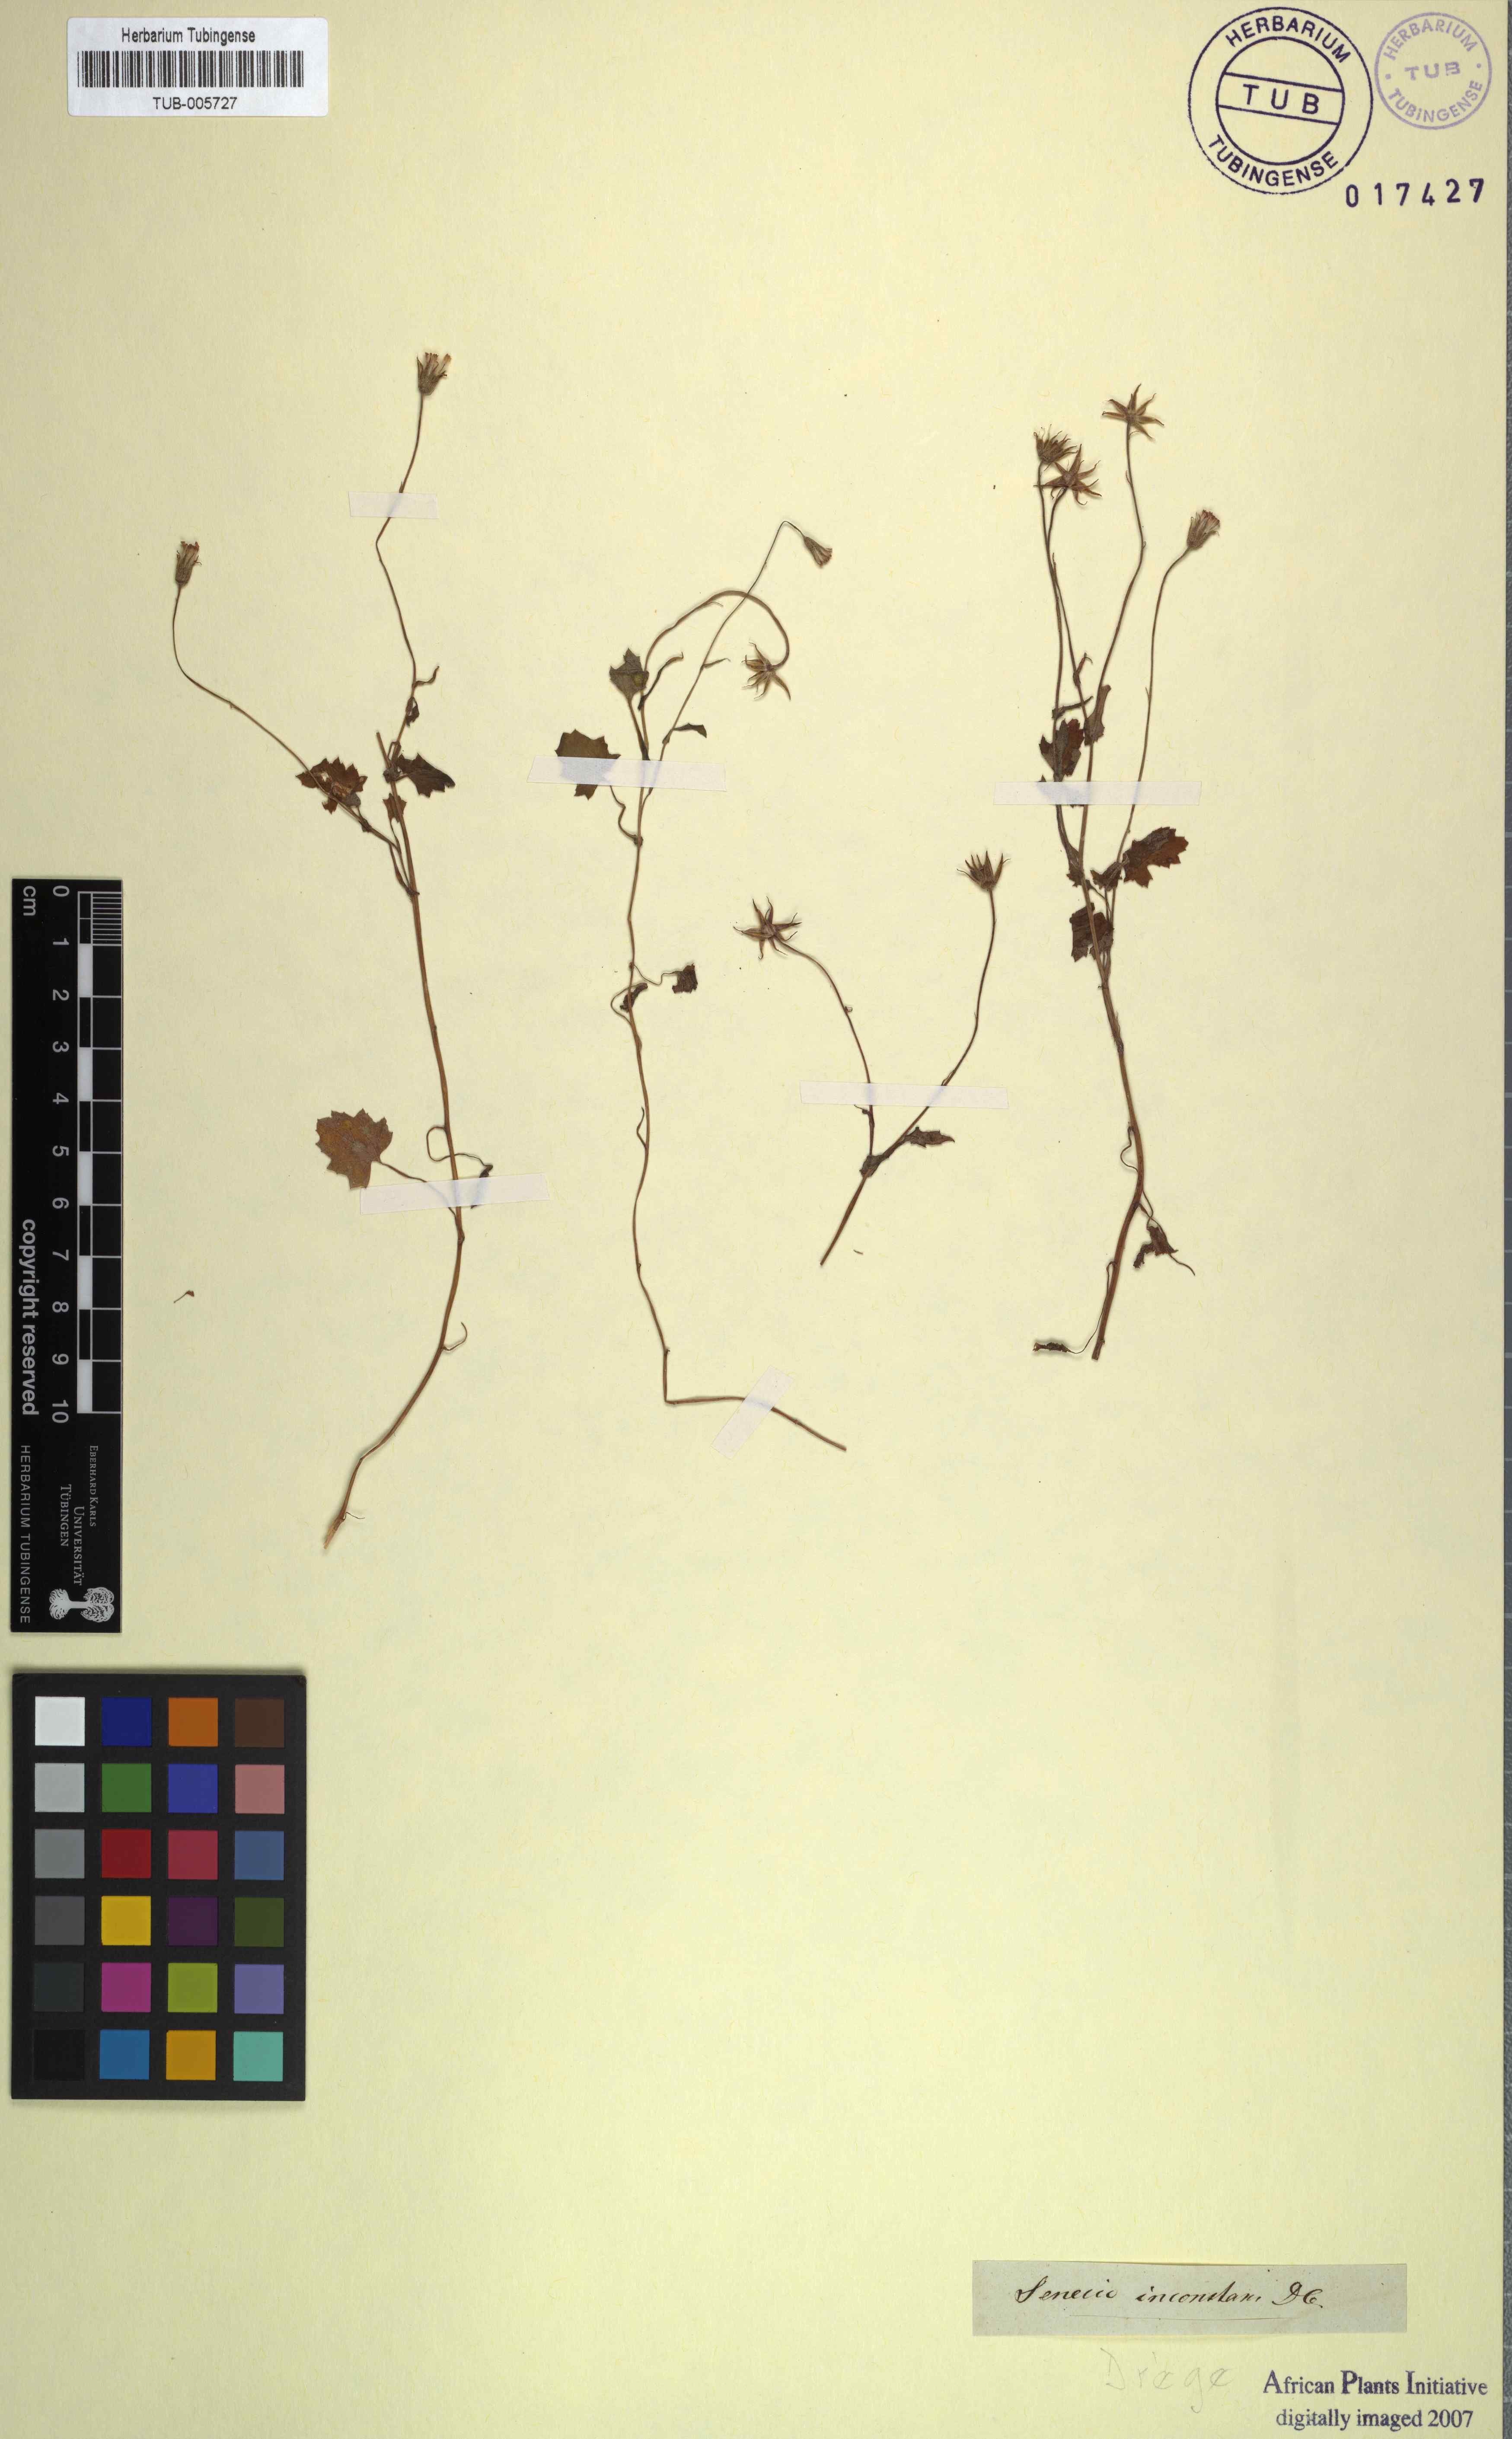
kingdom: Plantae
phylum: Tracheophyta
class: Magnoliopsida
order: Asterales
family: Asteraceae
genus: Senecio
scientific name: Senecio repandus
